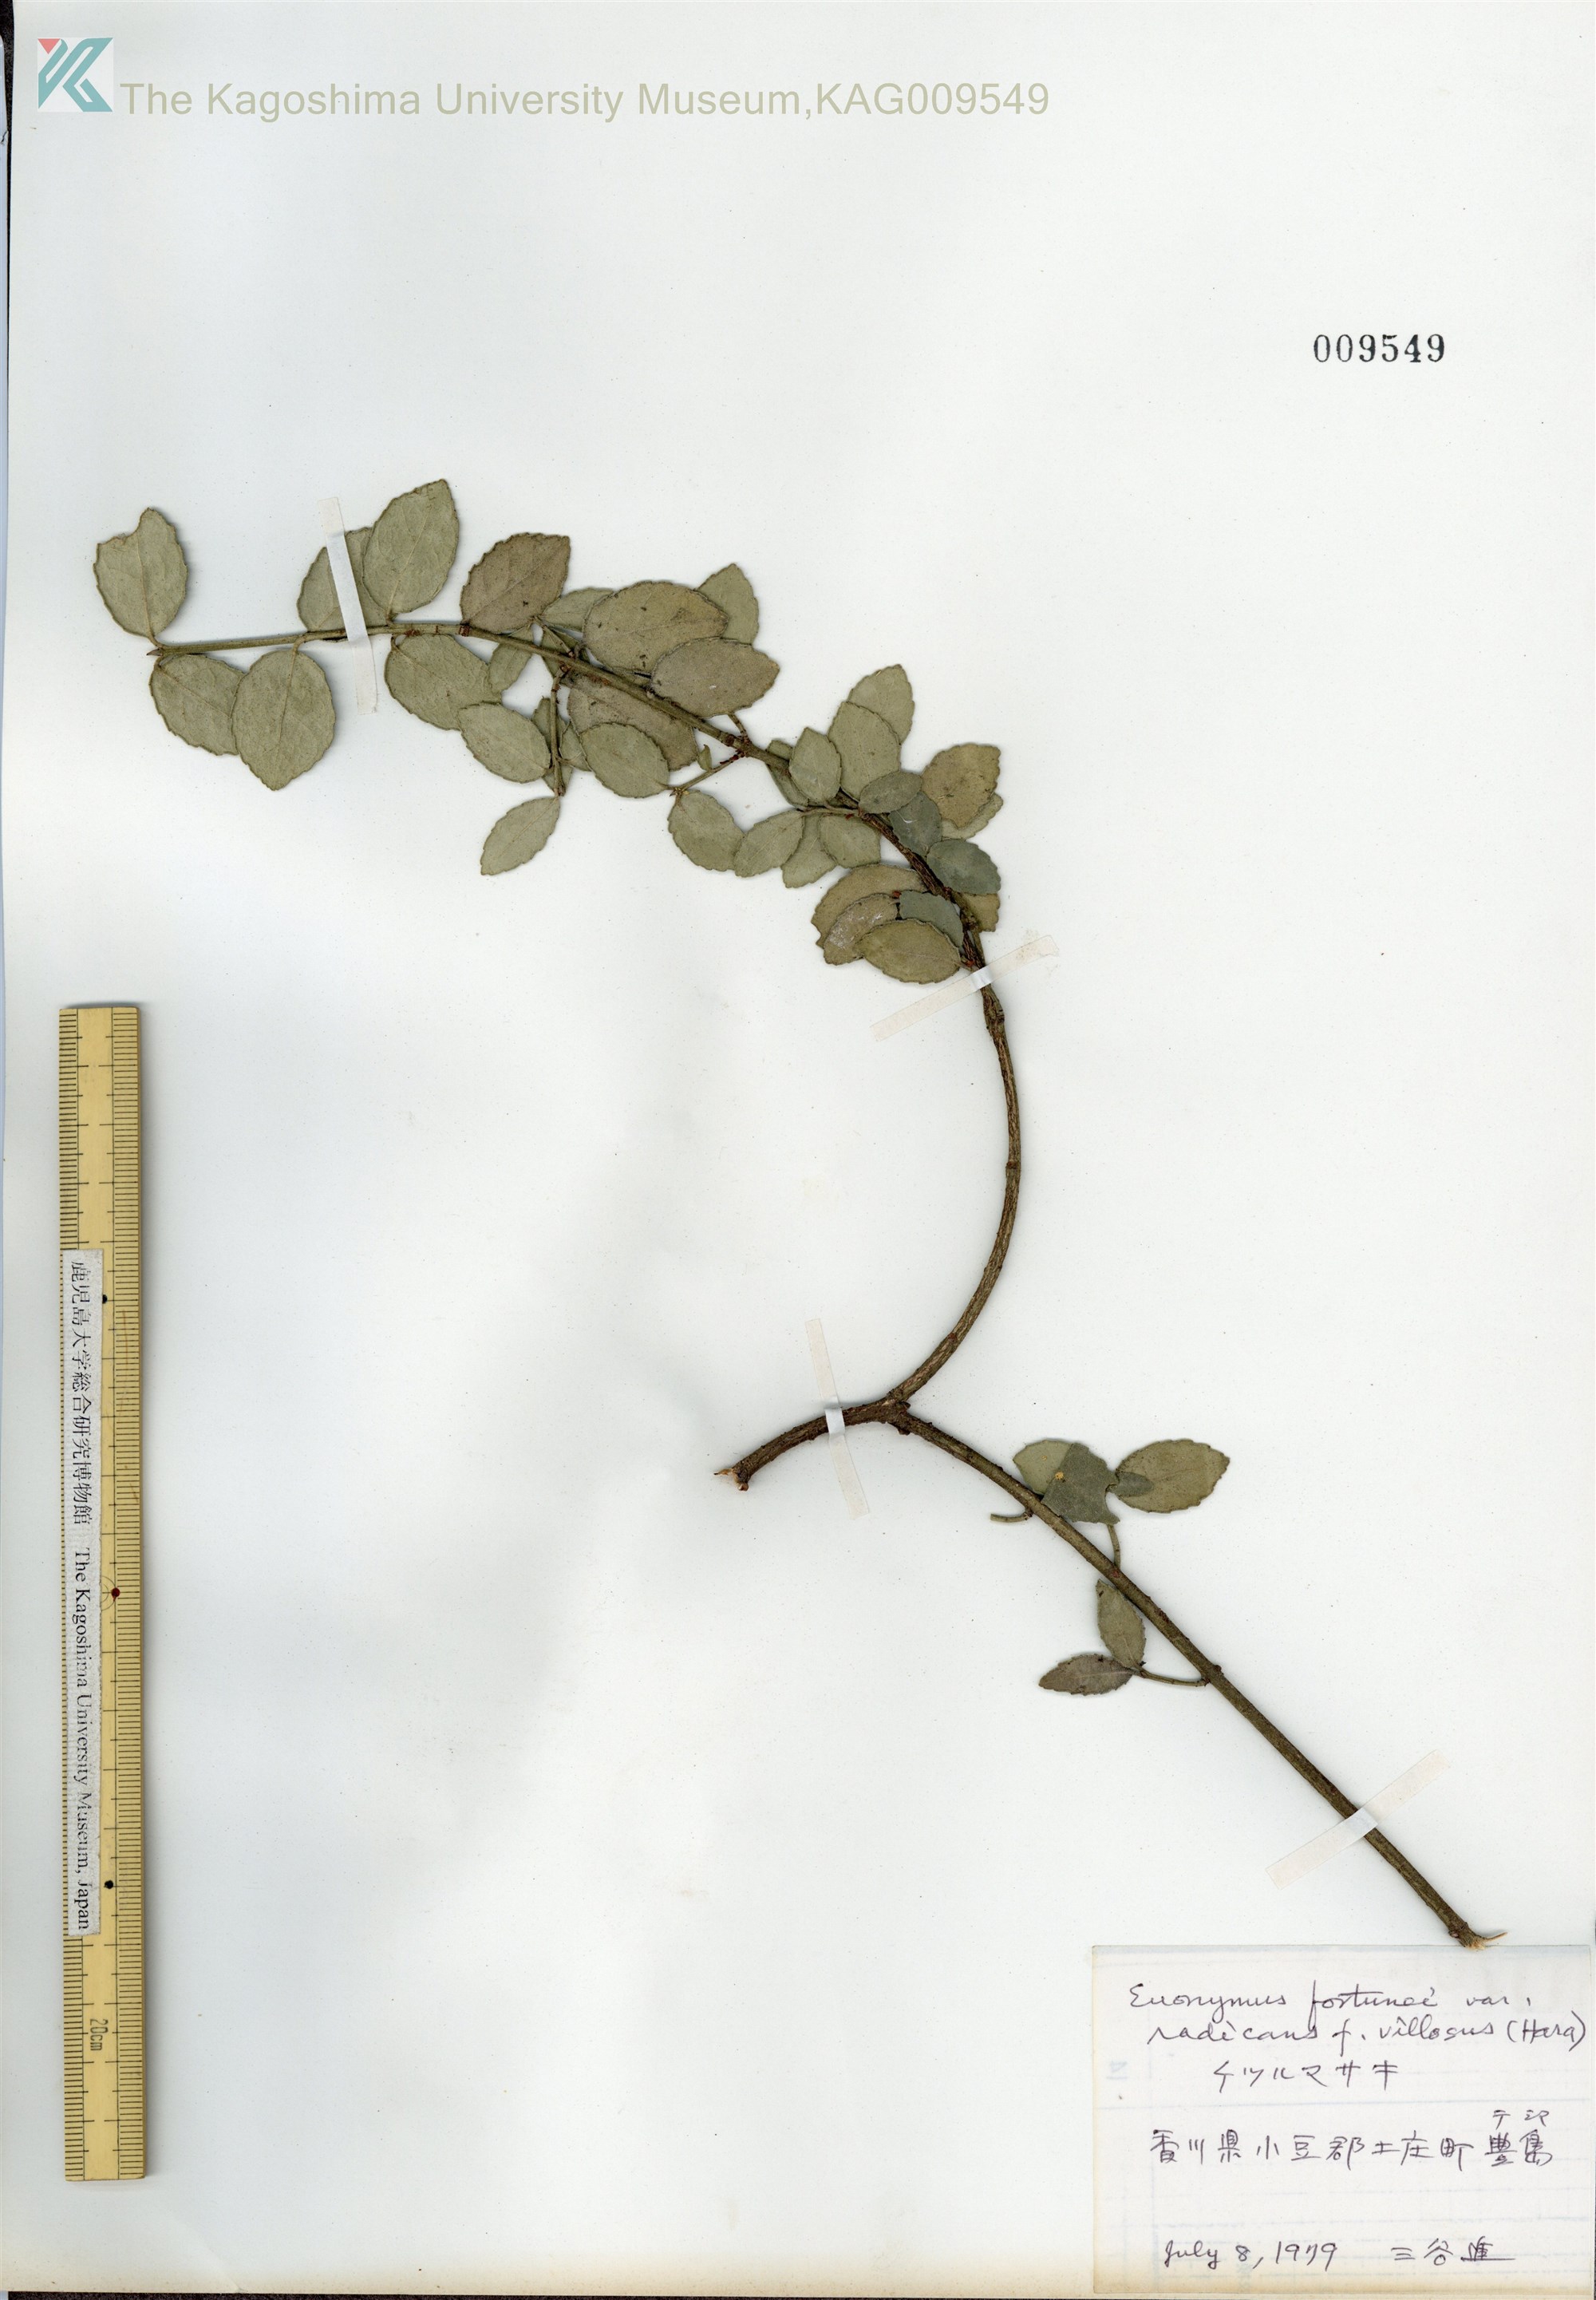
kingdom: Plantae
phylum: Tracheophyta
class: Magnoliopsida
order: Celastrales
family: Celastraceae
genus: Euonymus
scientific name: Euonymus fortunei
